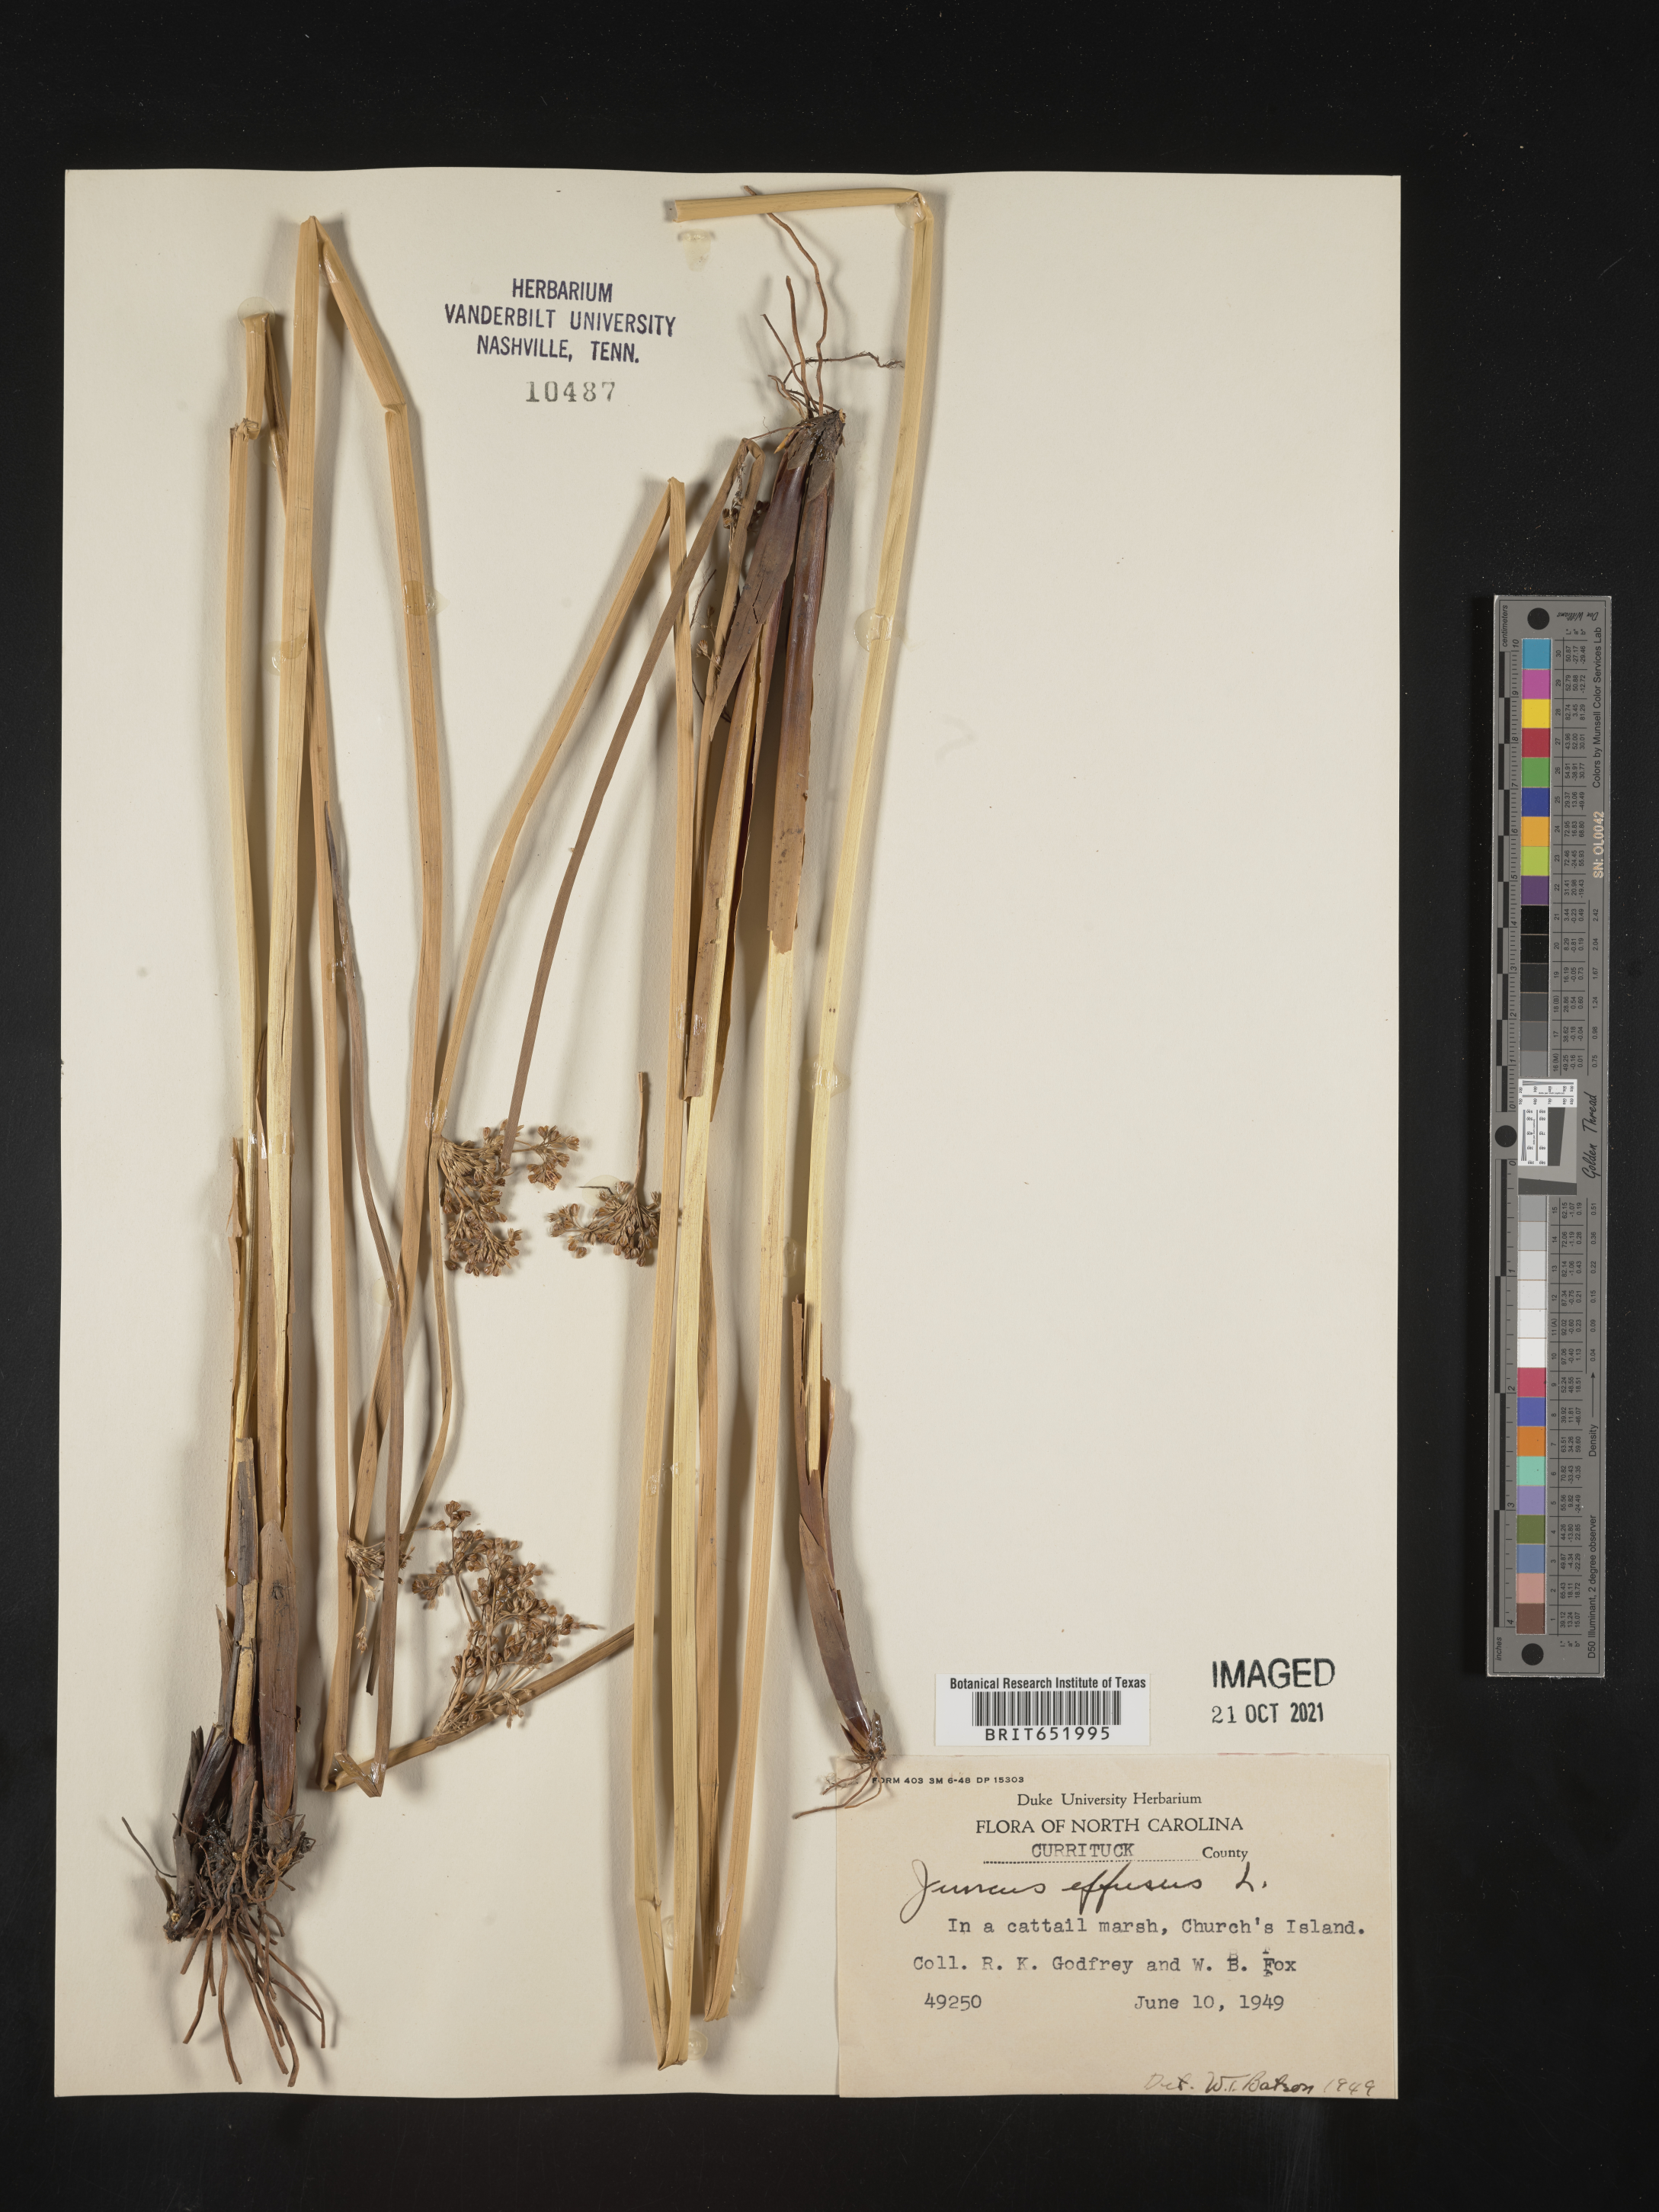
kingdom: Plantae
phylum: Tracheophyta
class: Liliopsida
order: Poales
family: Juncaceae
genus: Juncus
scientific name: Juncus effusus
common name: Soft rush
